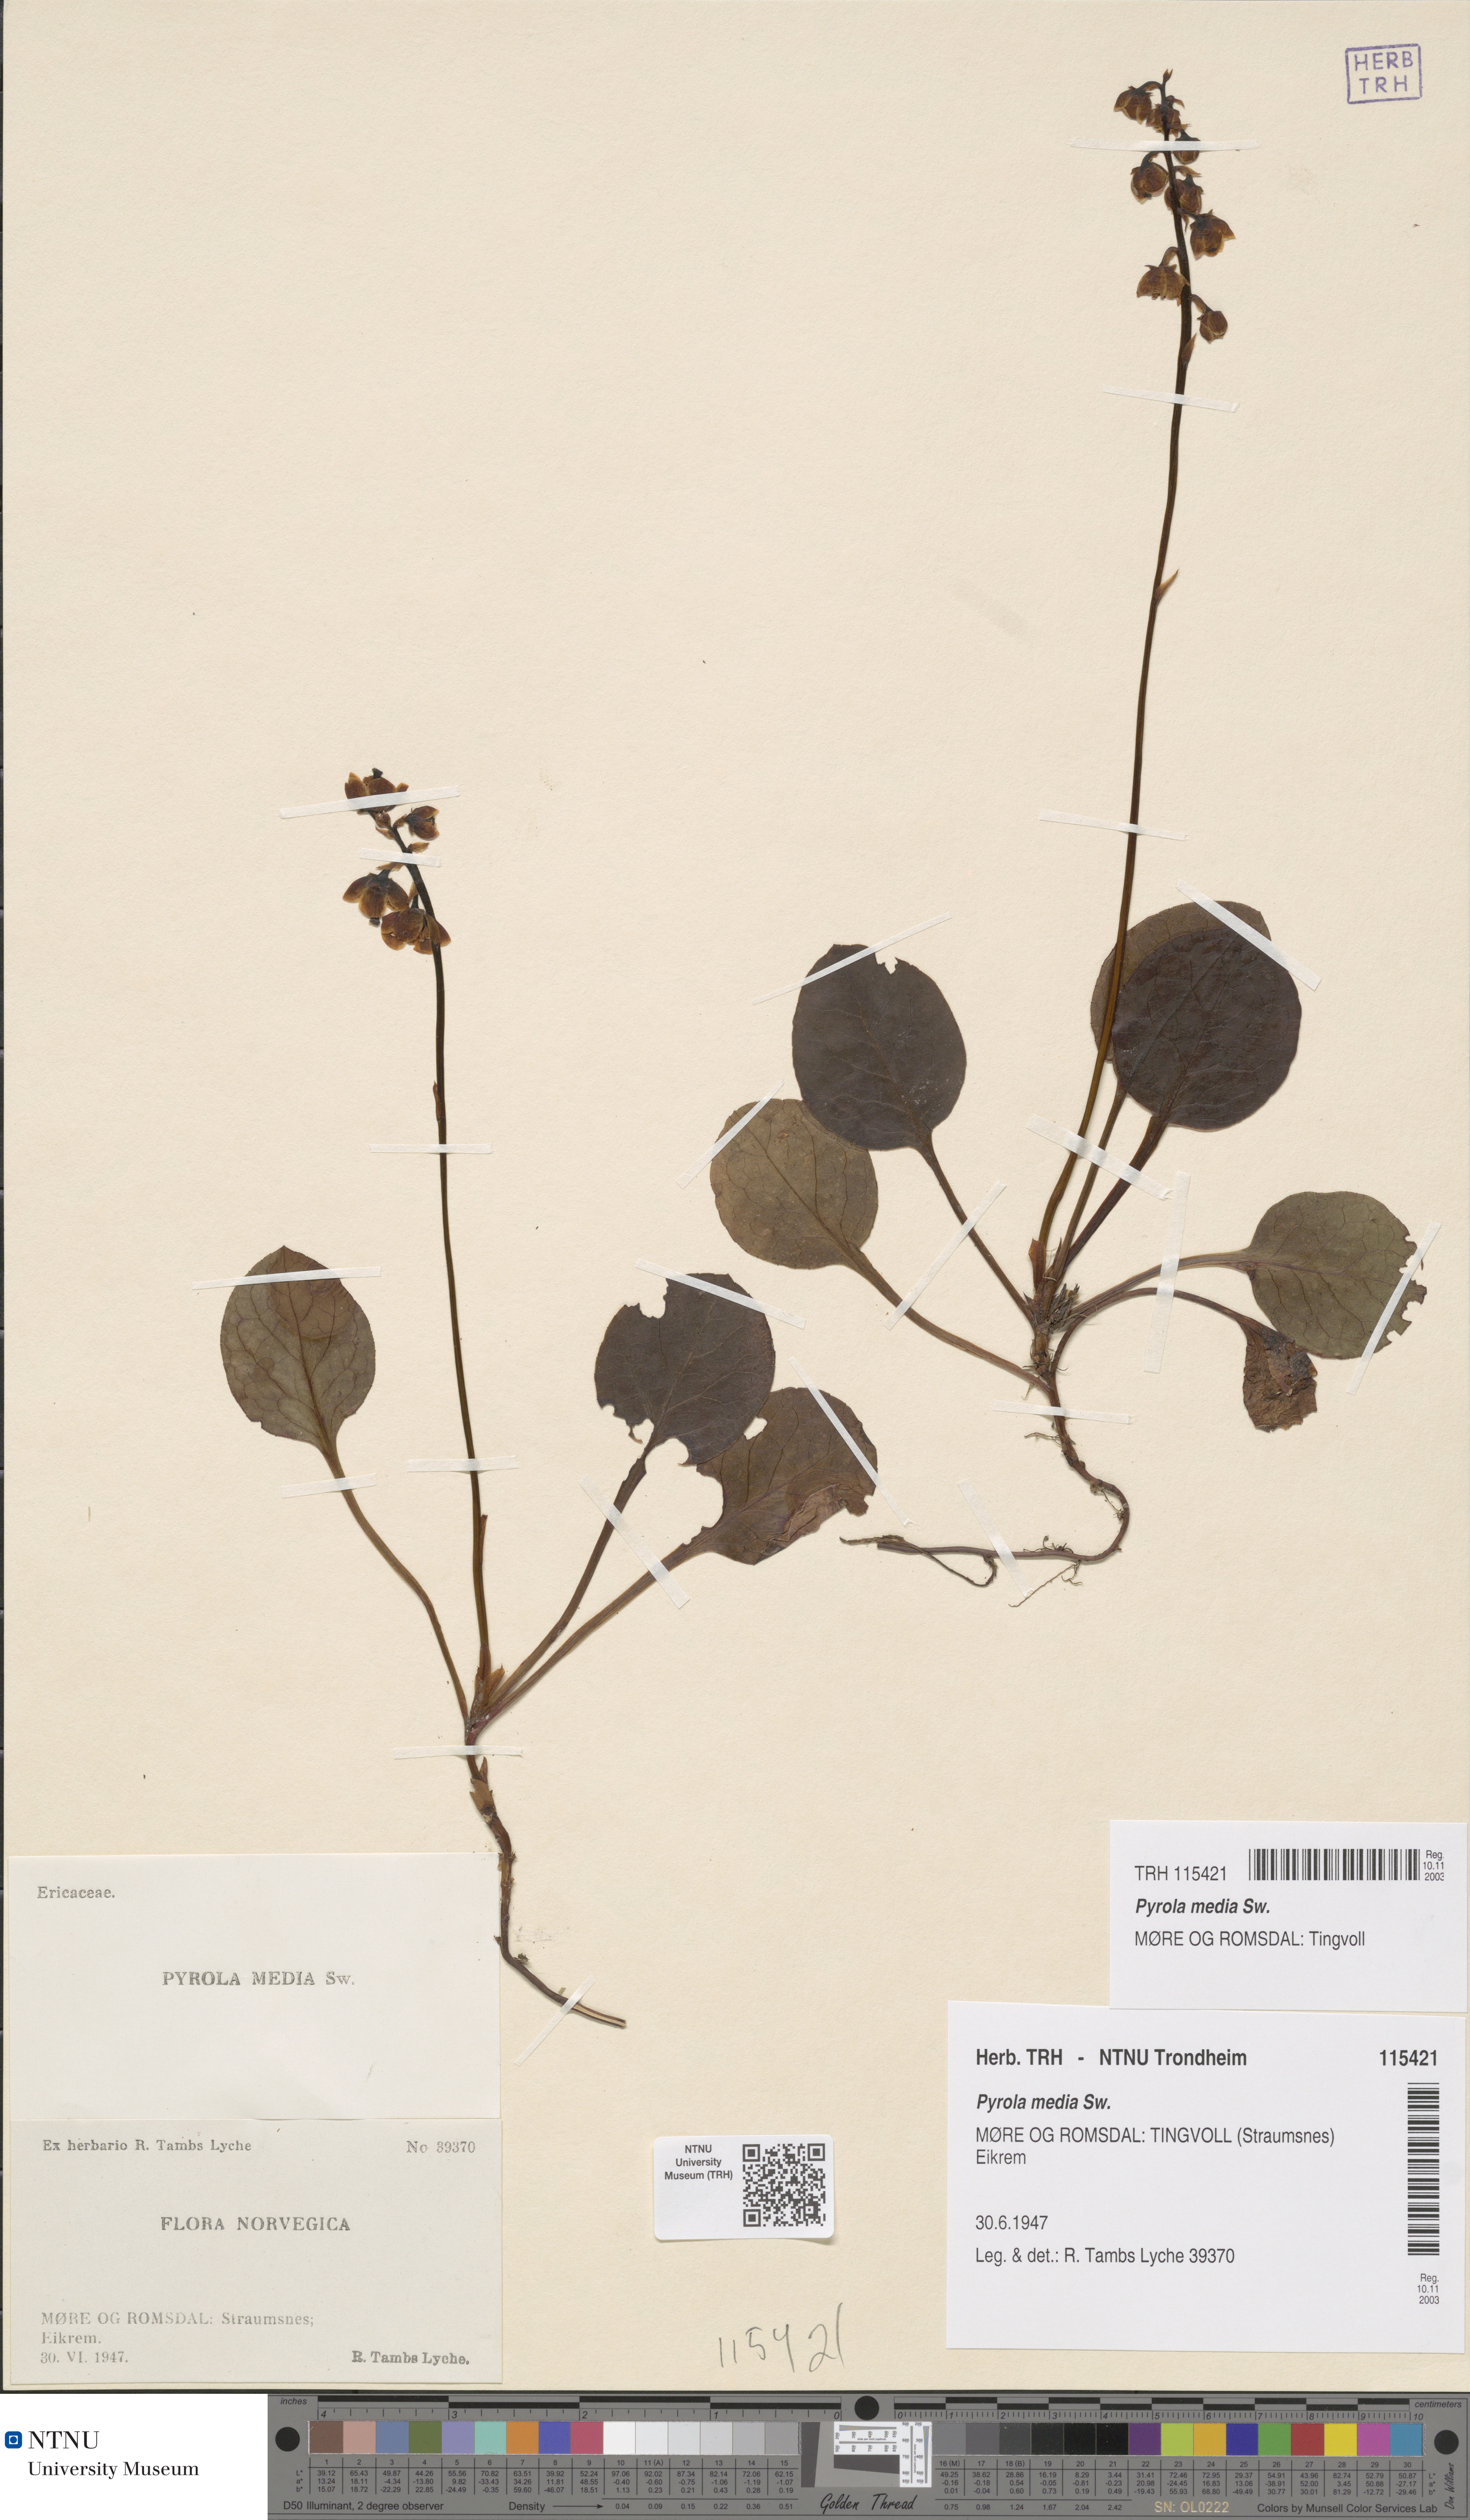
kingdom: Plantae
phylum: Tracheophyta
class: Magnoliopsida
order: Ericales
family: Ericaceae
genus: Pyrola
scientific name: Pyrola media
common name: Intermediate wintergreen
